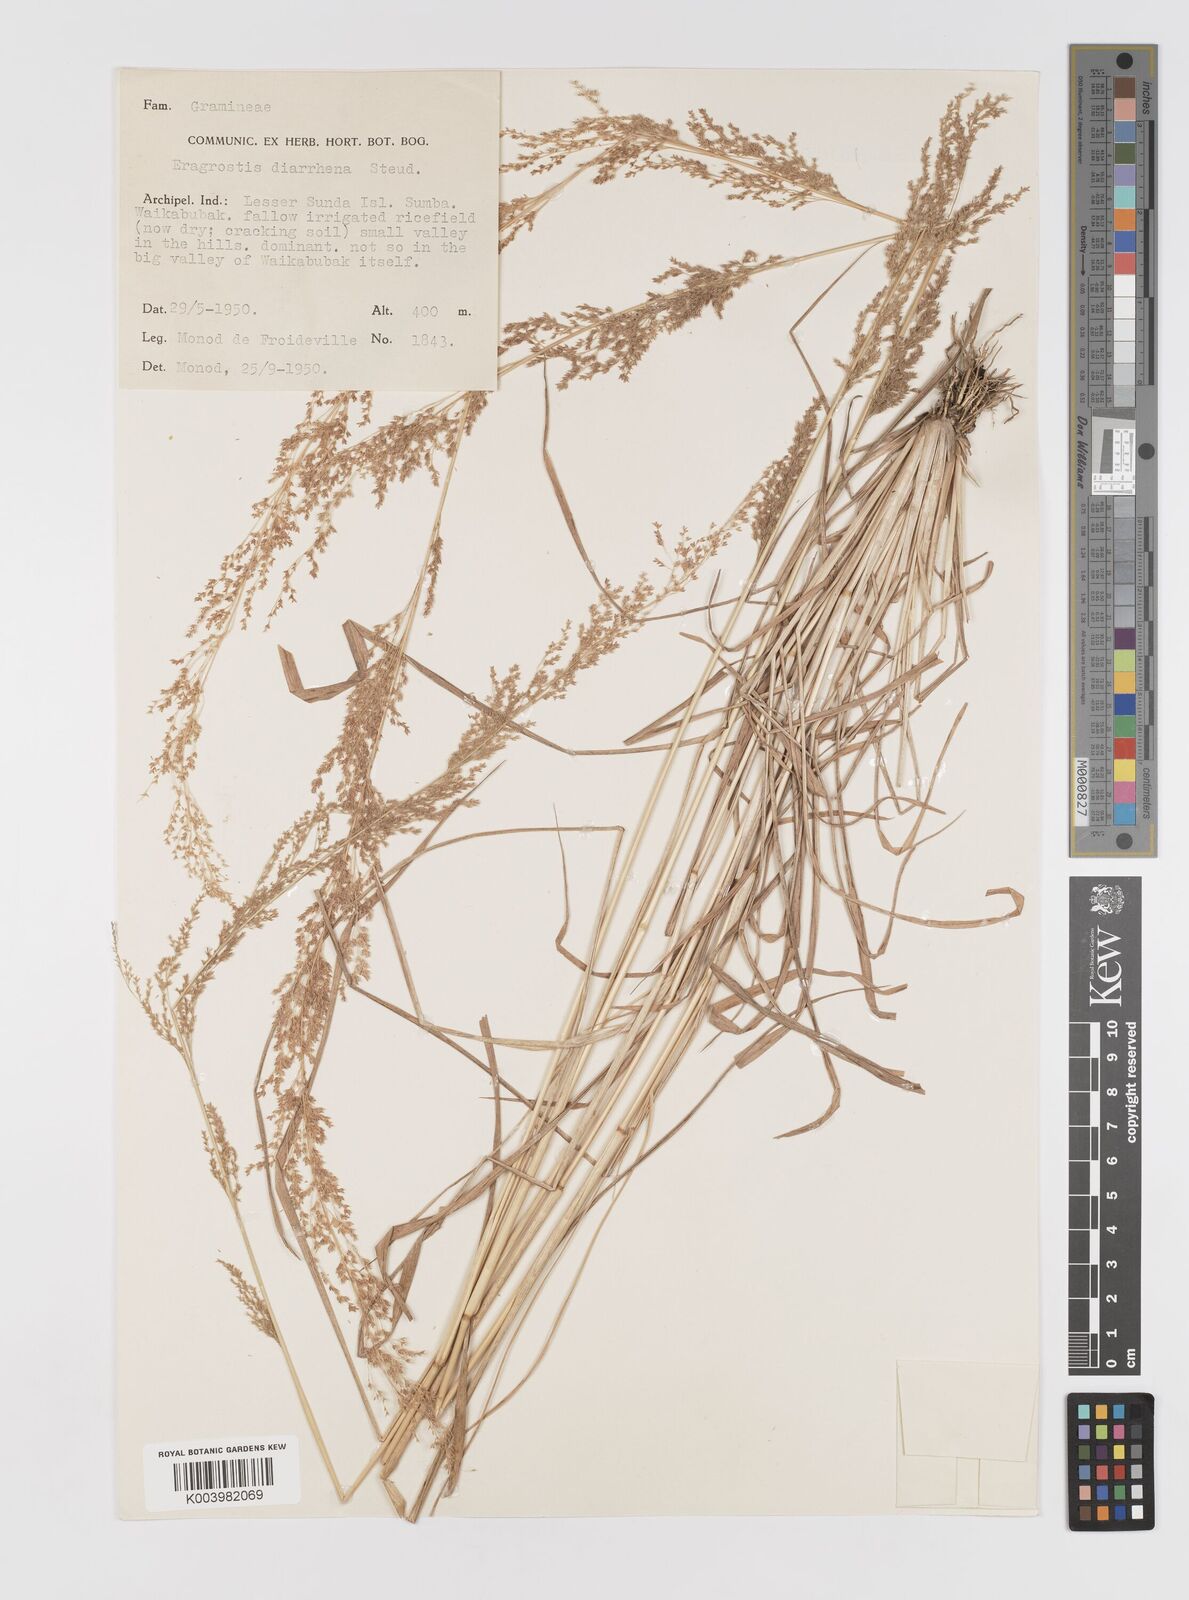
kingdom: Plantae
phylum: Tracheophyta
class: Liliopsida
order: Poales
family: Poaceae
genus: Eragrostis
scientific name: Eragrostis japonica
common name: Pond lovegrass
